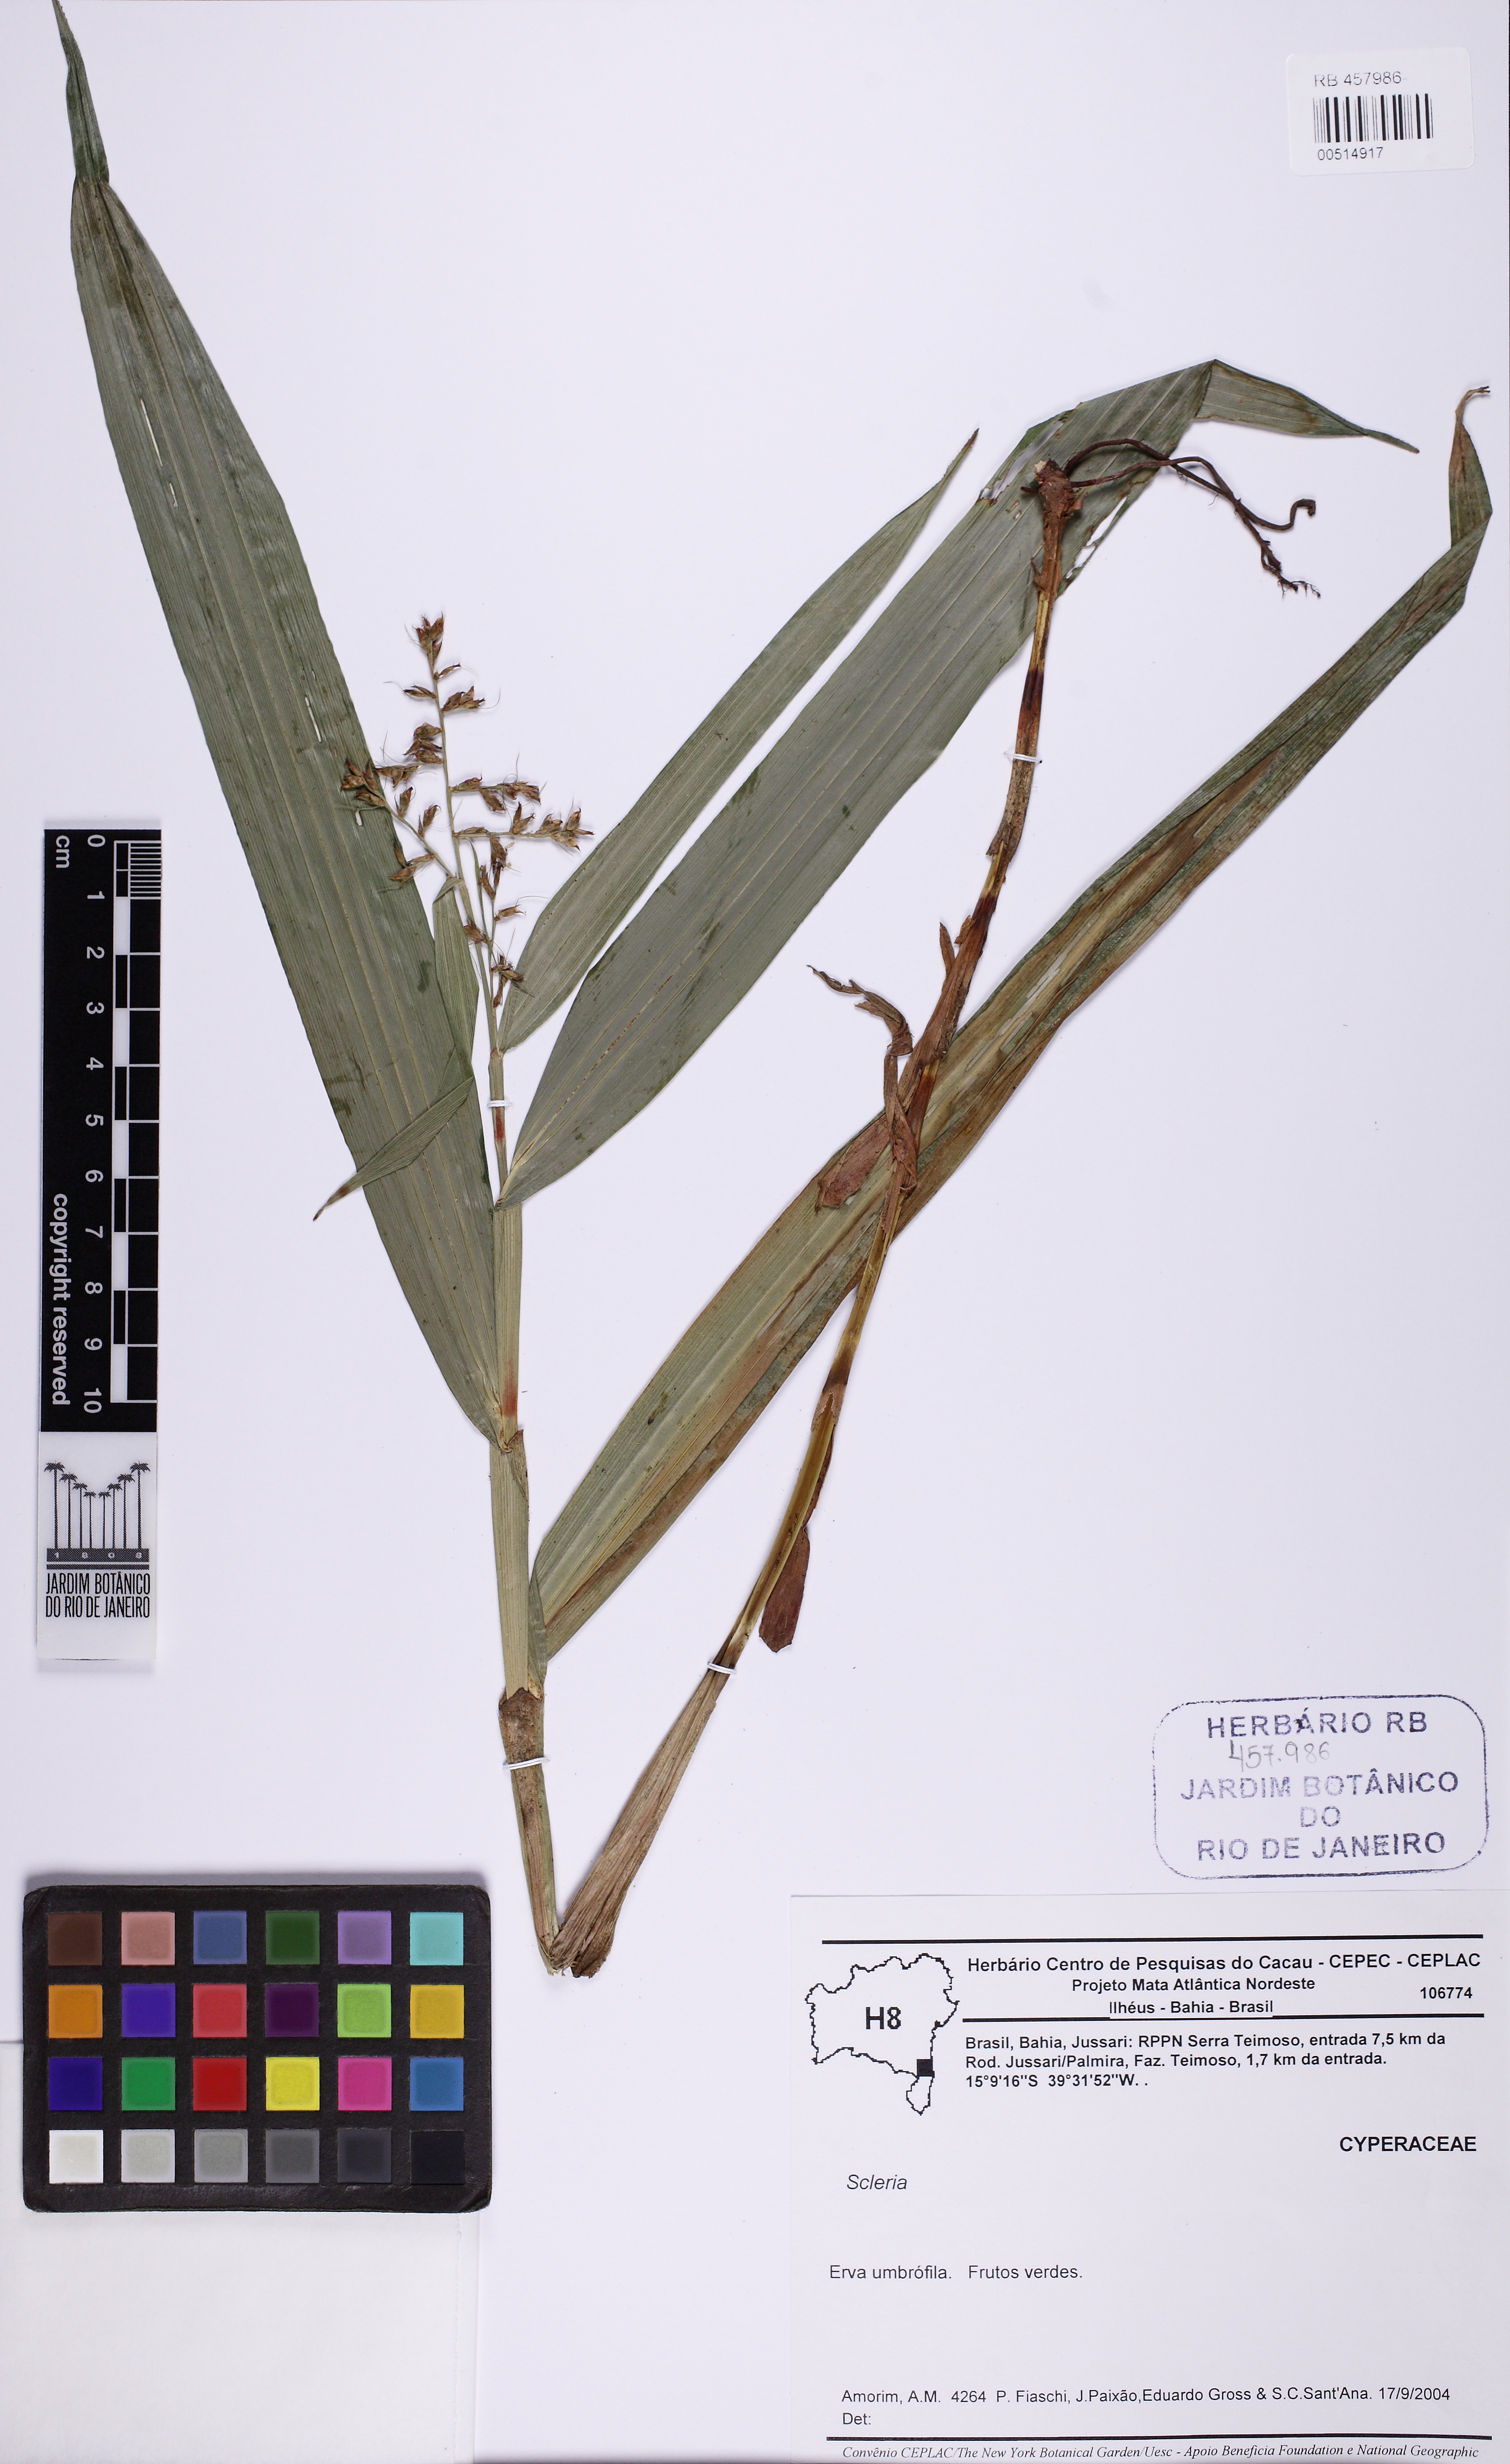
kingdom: Plantae
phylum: Tracheophyta
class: Liliopsida
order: Poales
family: Cyperaceae
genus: Scleria
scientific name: Scleria
